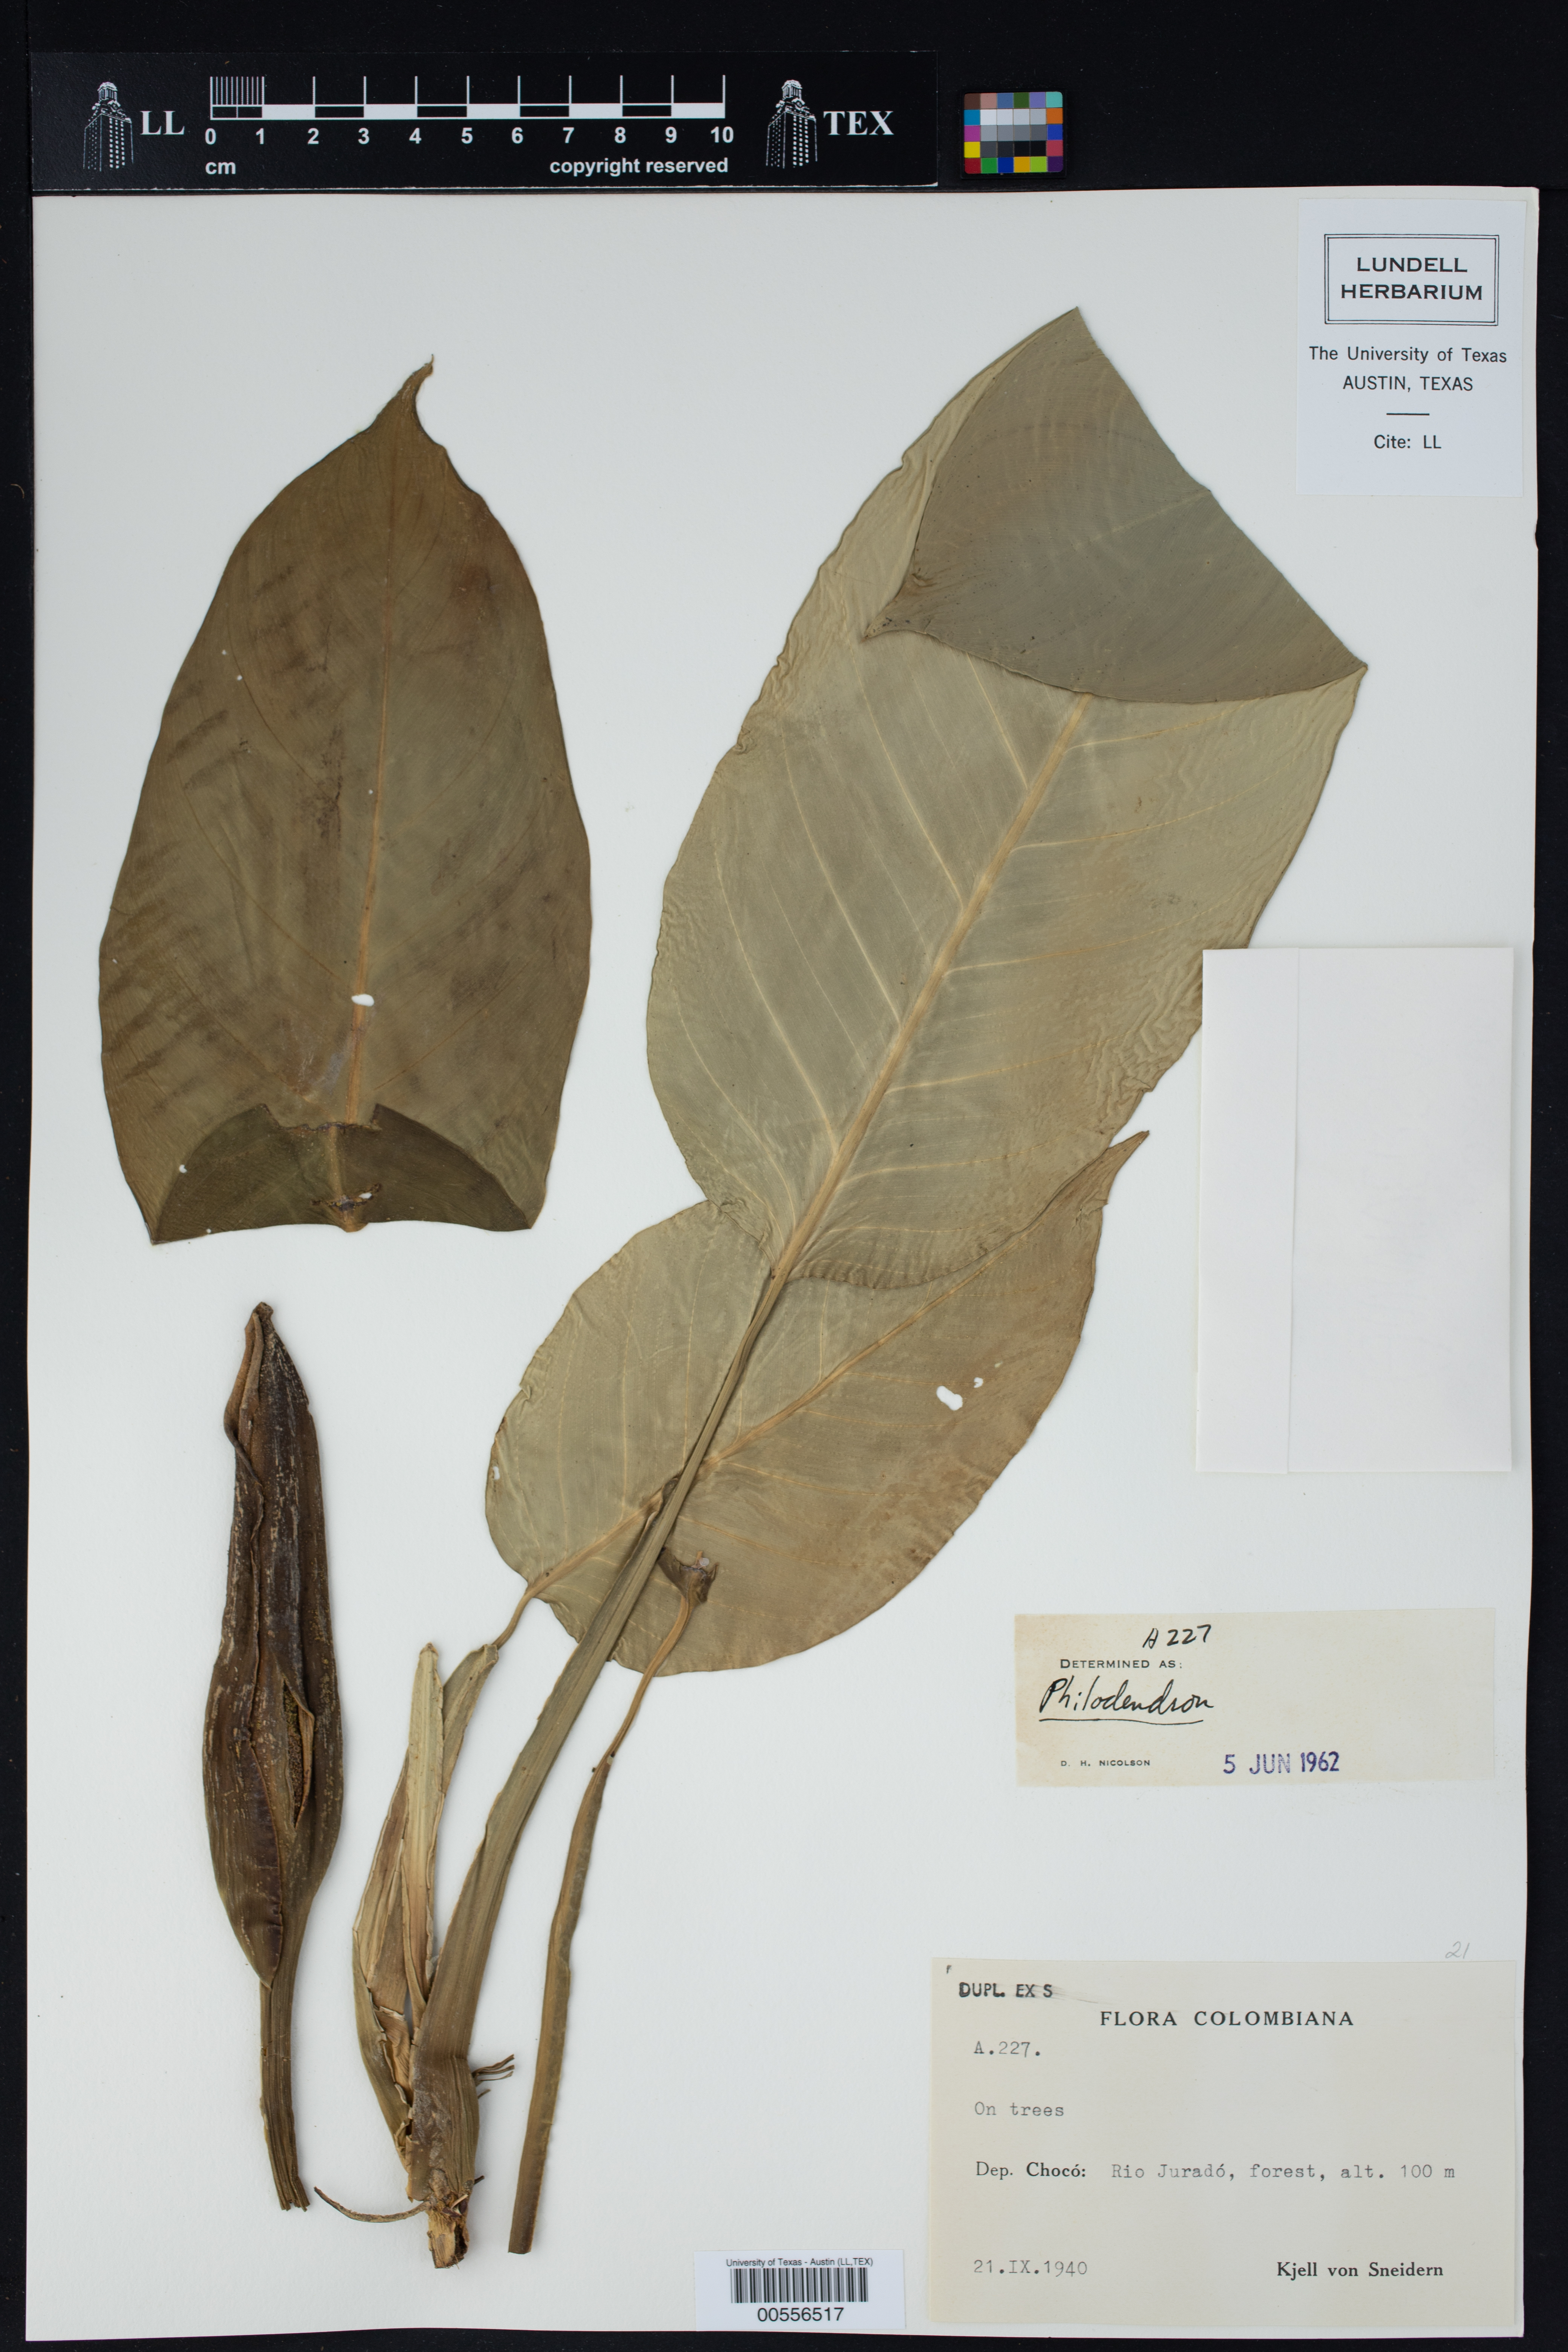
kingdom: Plantae
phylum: Tracheophyta
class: Liliopsida
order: Alismatales
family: Araceae
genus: Philodendron
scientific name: Philodendron
